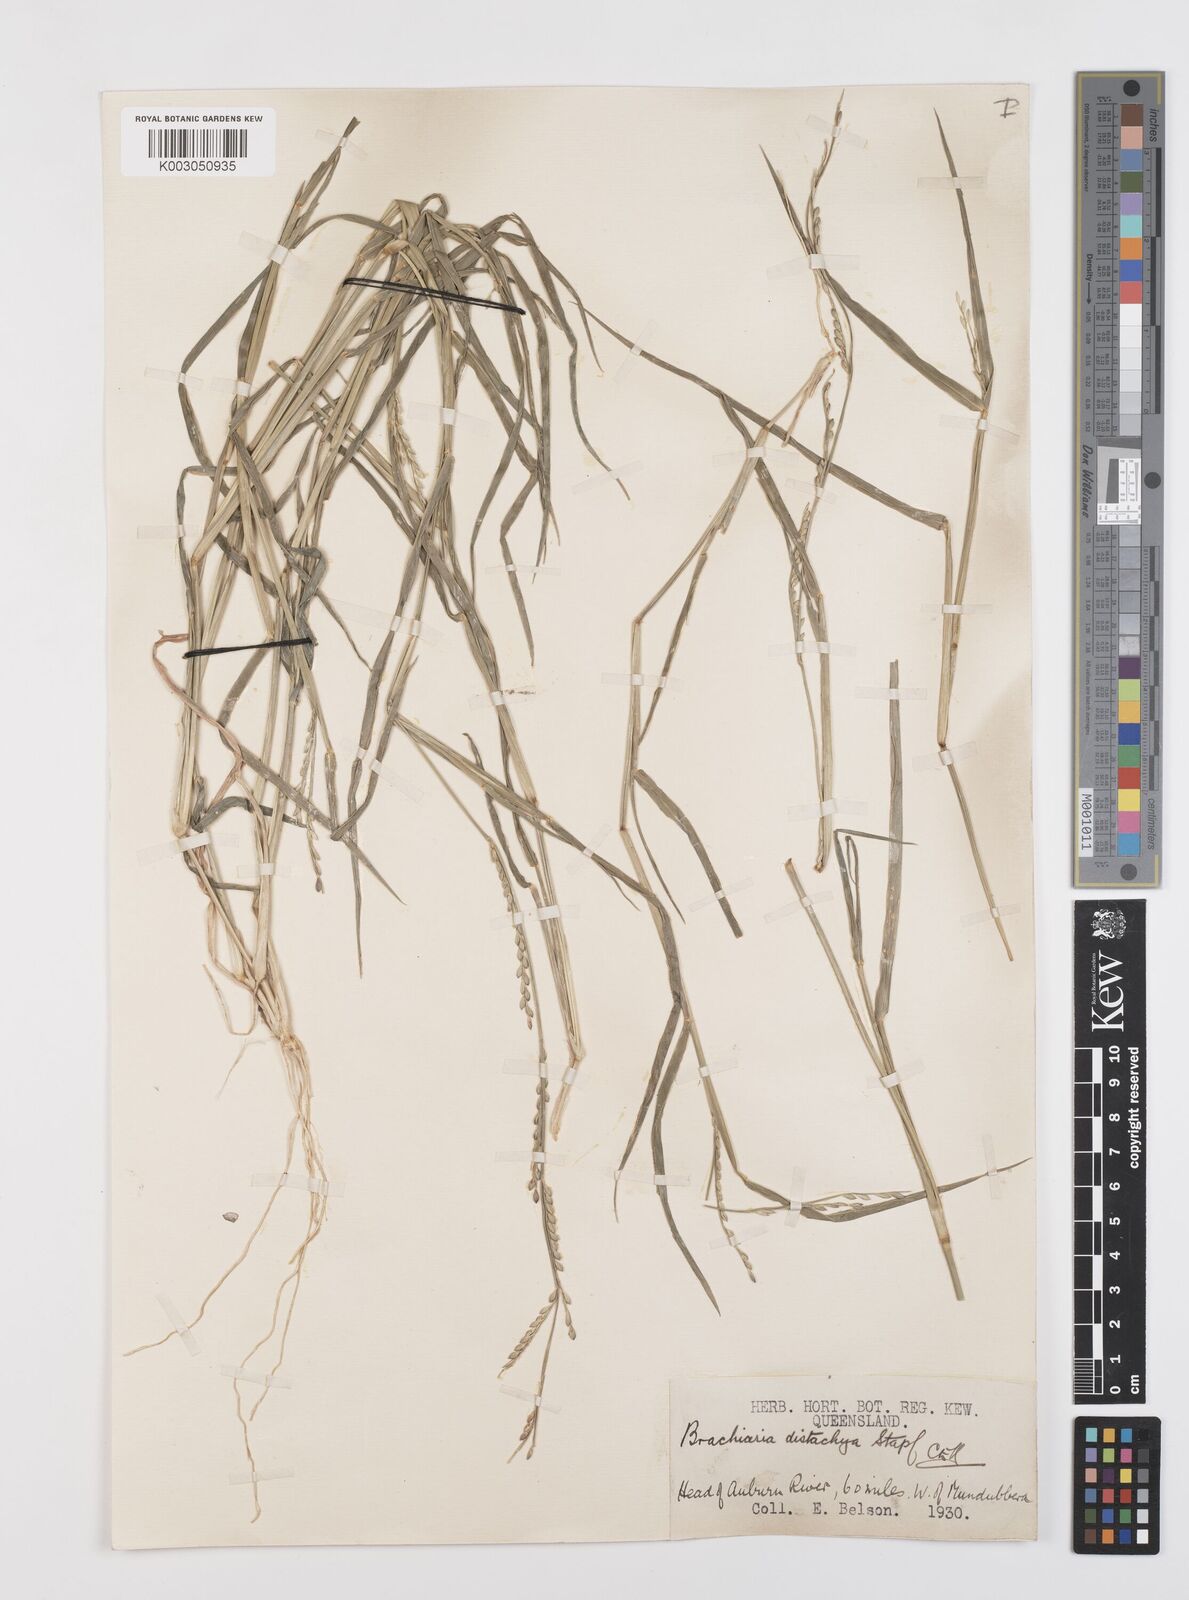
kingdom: Plantae
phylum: Tracheophyta
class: Liliopsida
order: Poales
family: Poaceae
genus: Urochloa
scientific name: Urochloa subquadripara
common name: Armgrass millet
